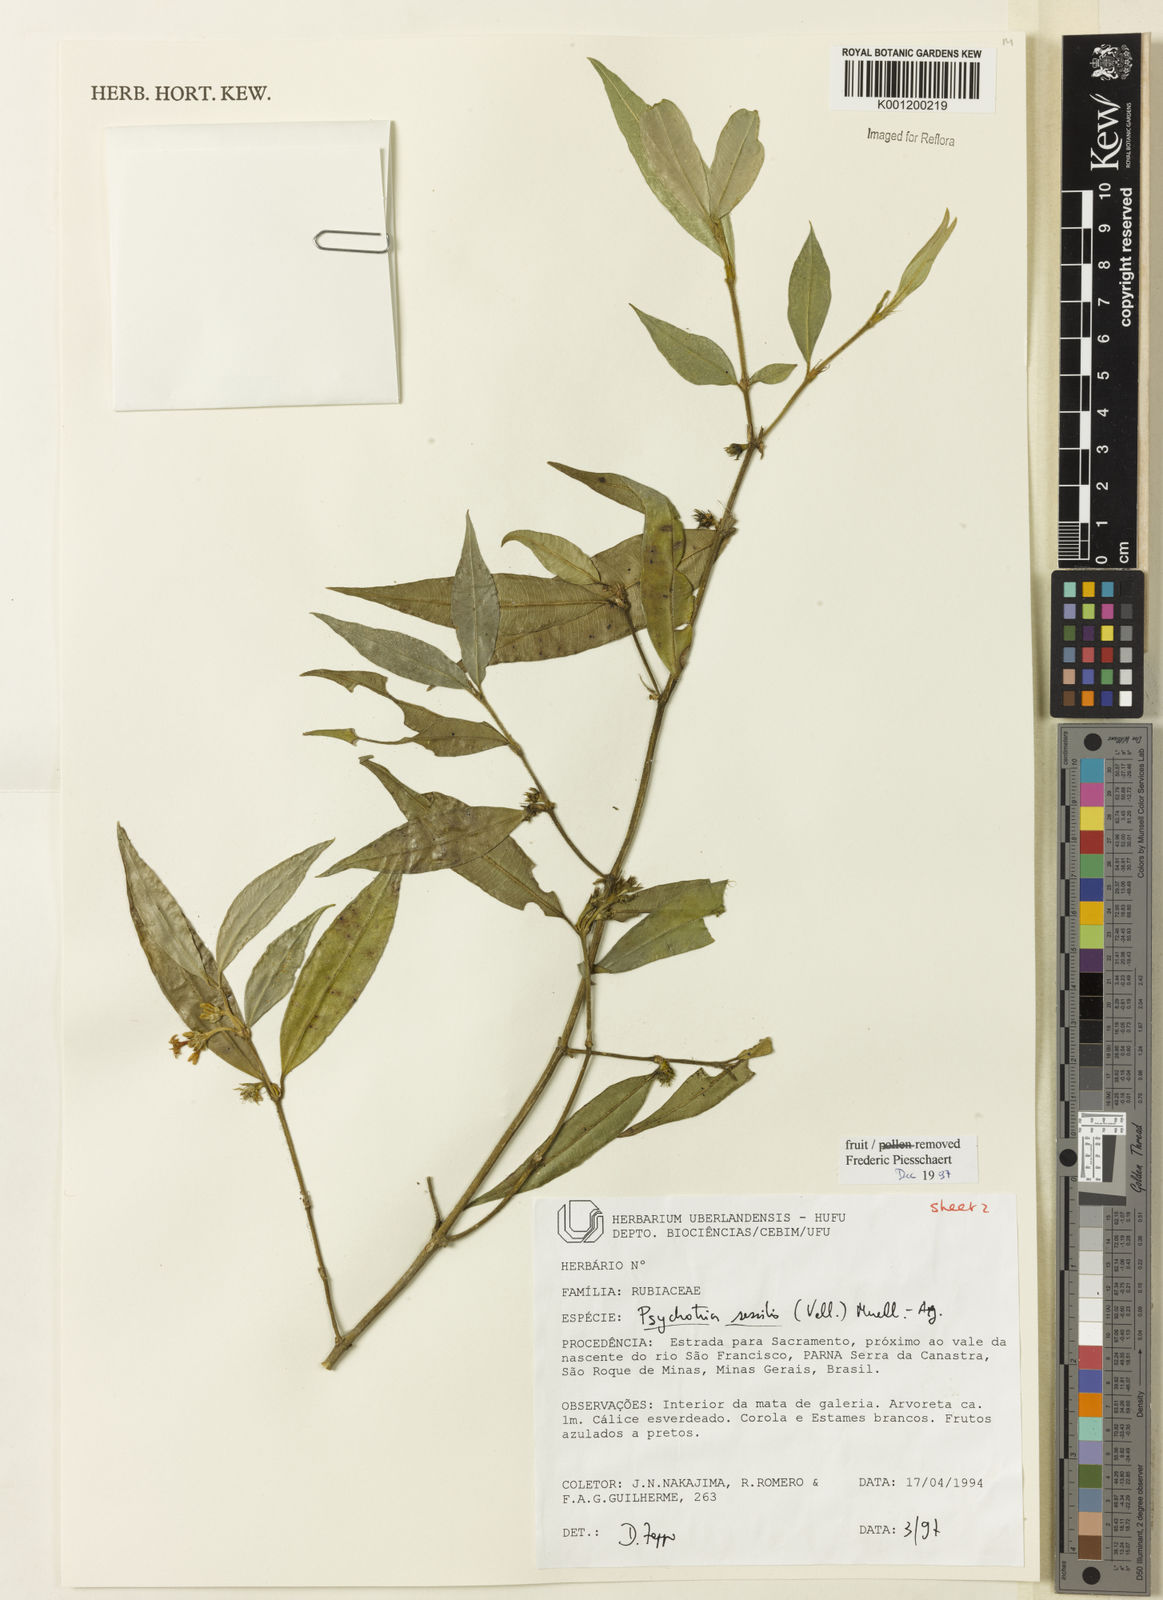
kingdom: Plantae
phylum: Tracheophyta
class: Magnoliopsida
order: Gentianales
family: Rubiaceae
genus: Rudgea
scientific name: Rudgea sessilis
